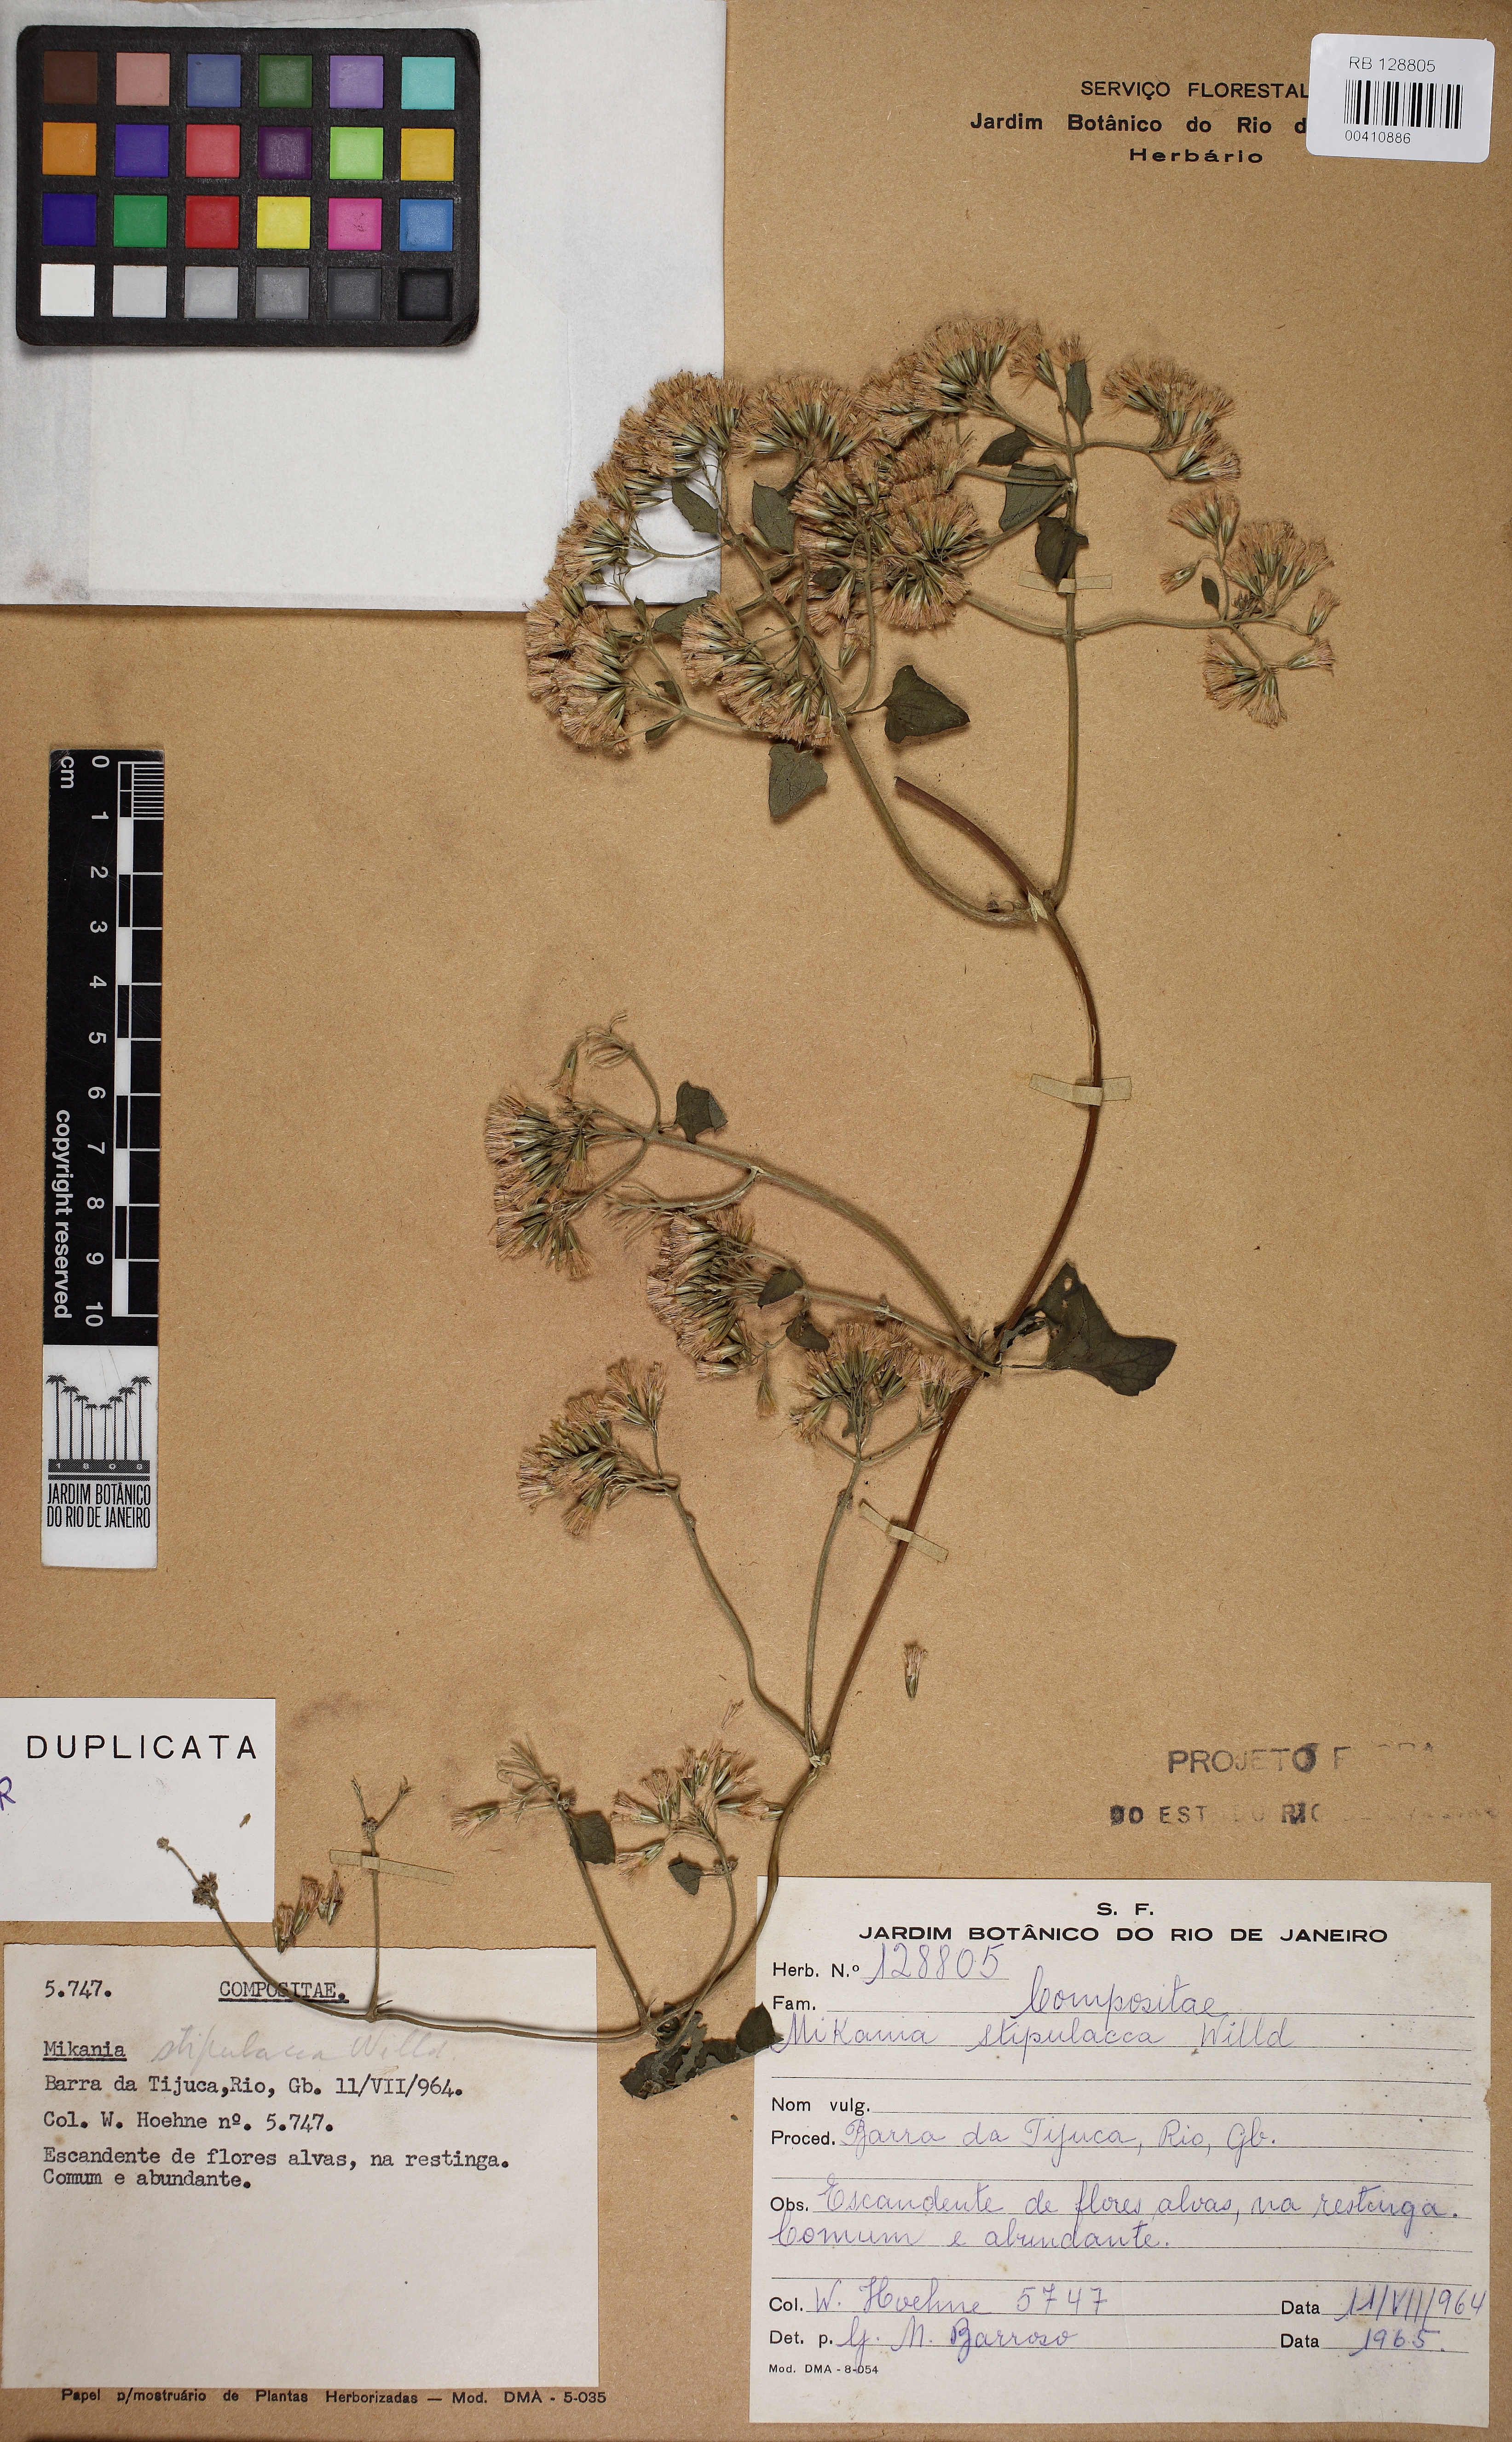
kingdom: Plantae
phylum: Tracheophyta
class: Magnoliopsida
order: Asterales
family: Asteraceae
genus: Mikania
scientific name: Mikania stipulacea
